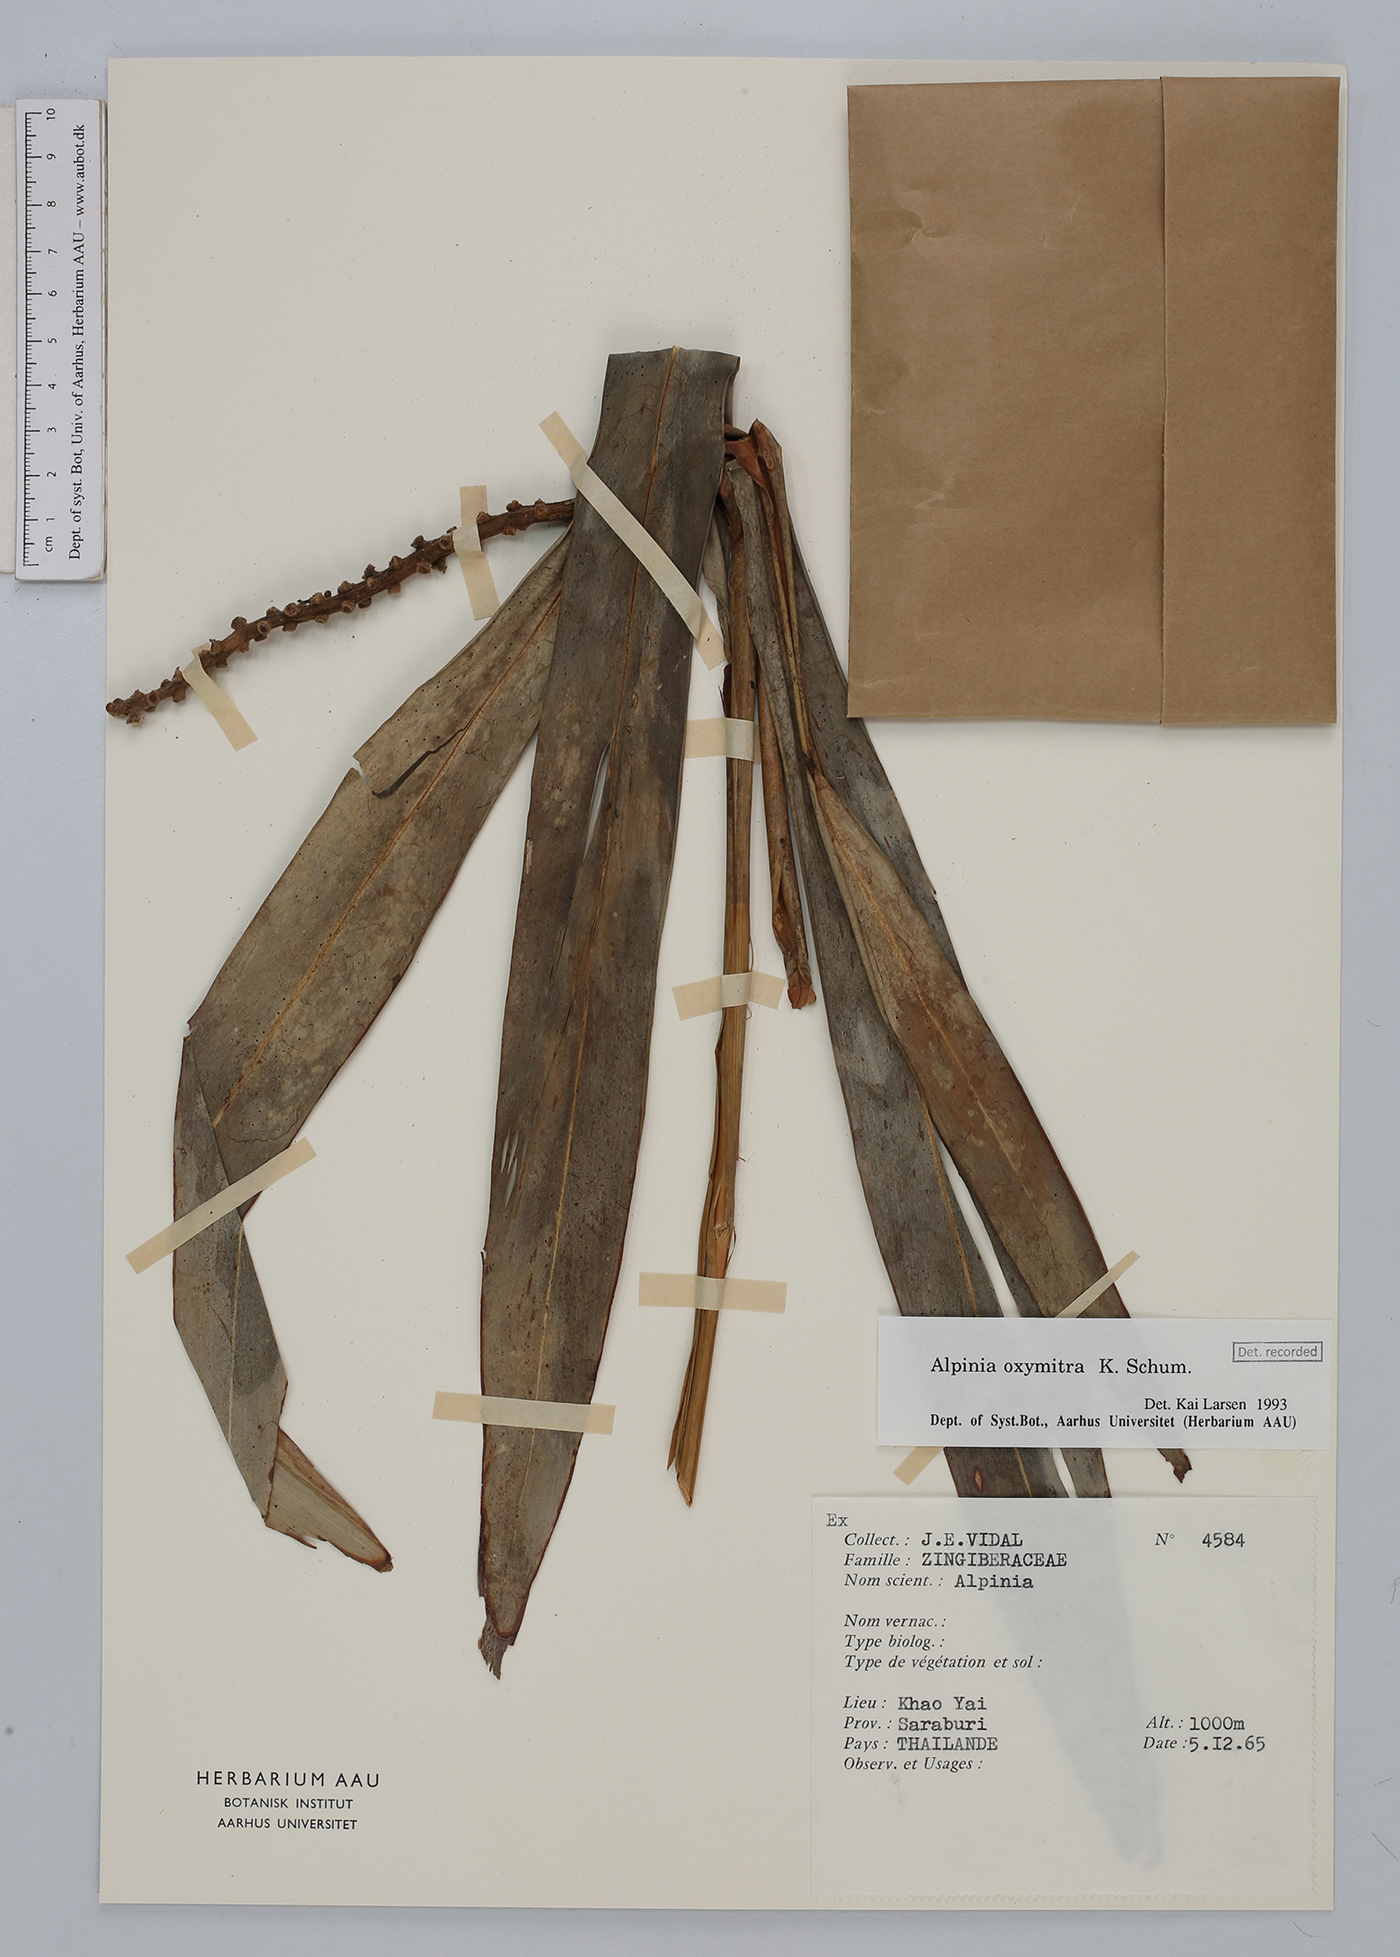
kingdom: Plantae
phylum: Tracheophyta
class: Liliopsida
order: Zingiberales
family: Zingiberaceae
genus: Alpinia
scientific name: Alpinia oxymitra
